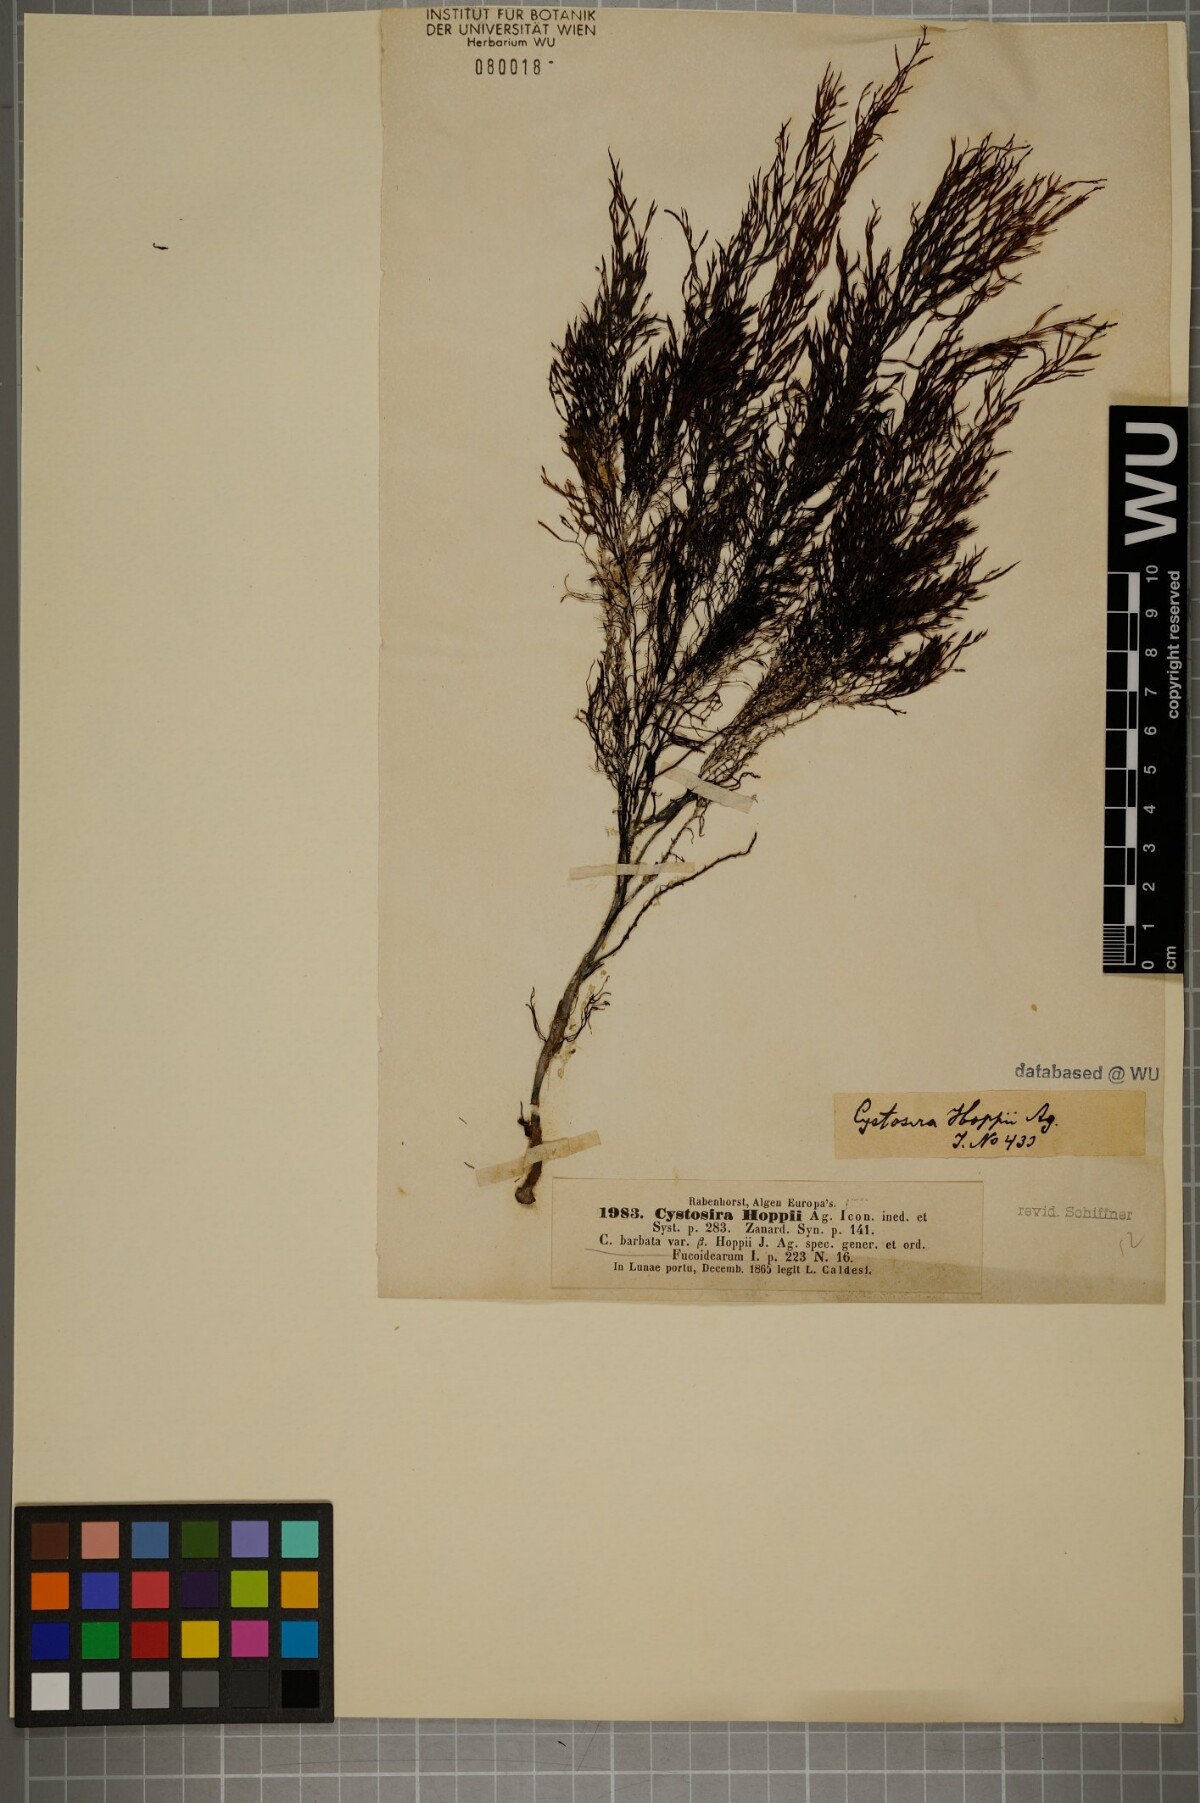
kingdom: Chromista
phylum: Ochrophyta
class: Phaeophyceae
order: Fucales
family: Sargassaceae
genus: Cystoseira
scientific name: Cystoseira Gongolaria barbata
